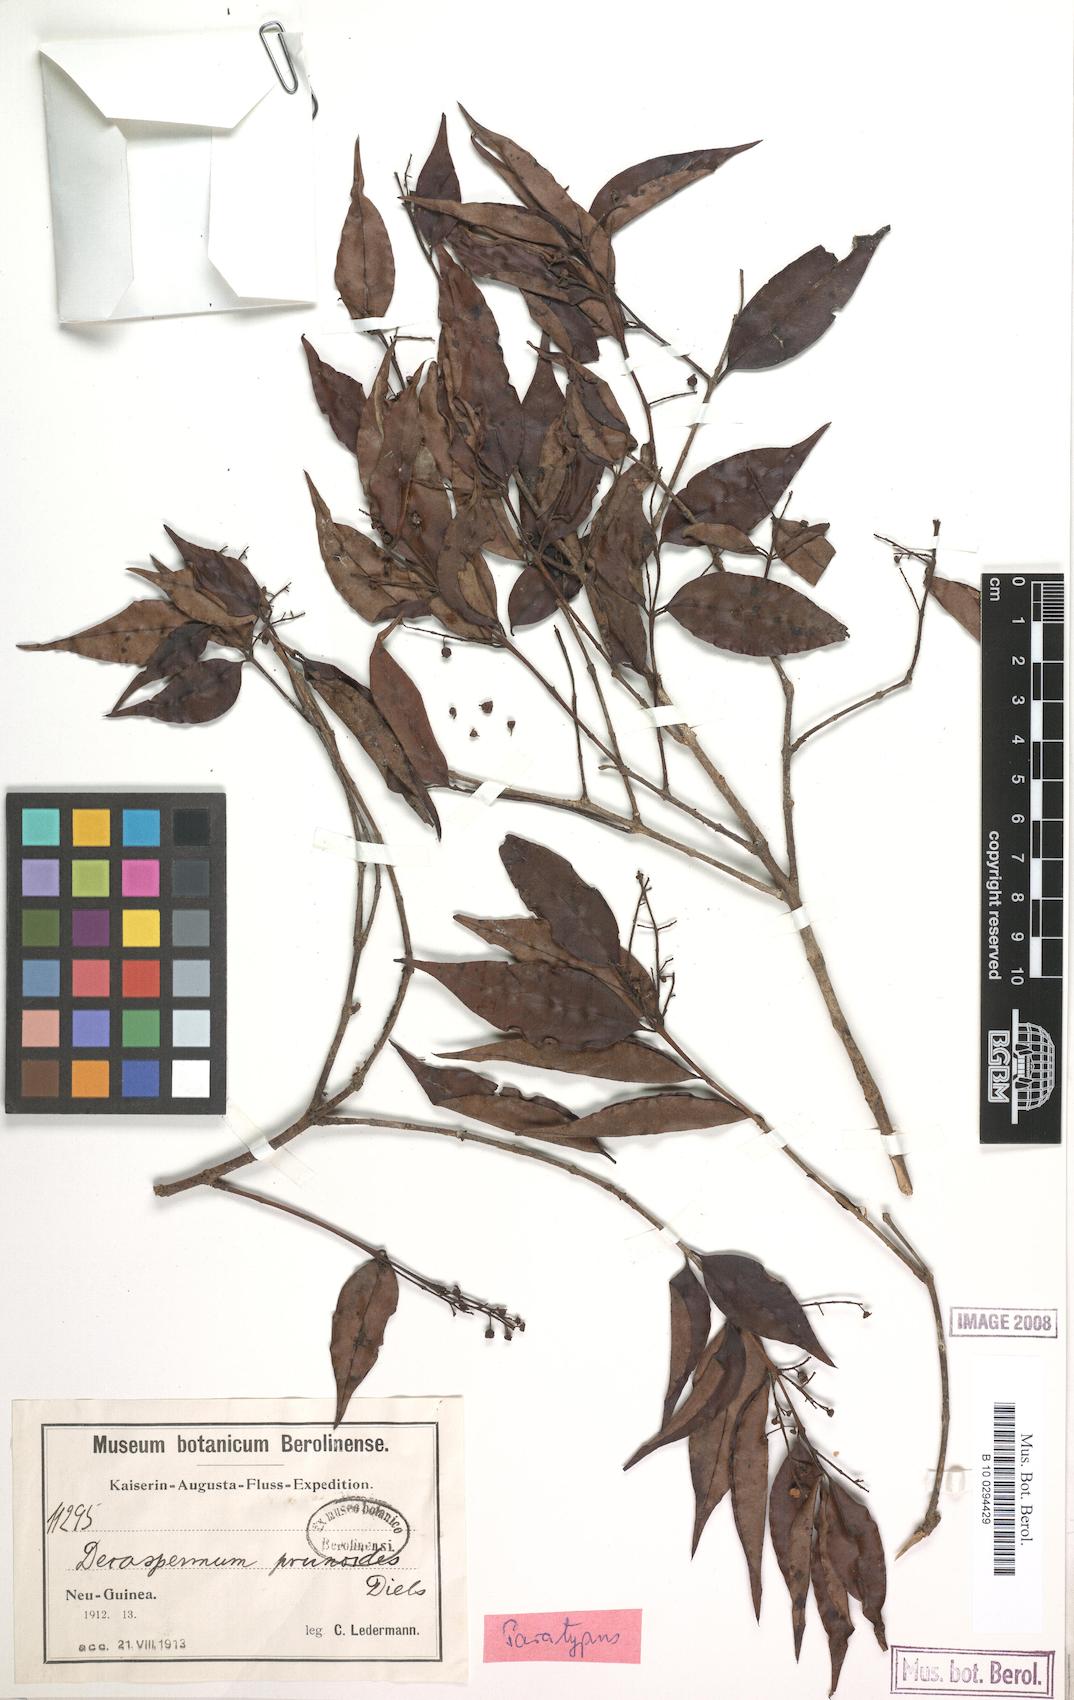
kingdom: Plantae
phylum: Tracheophyta
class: Magnoliopsida
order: Myrtales
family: Myrtaceae
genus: Decaspermum
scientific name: Decaspermum prunoides
